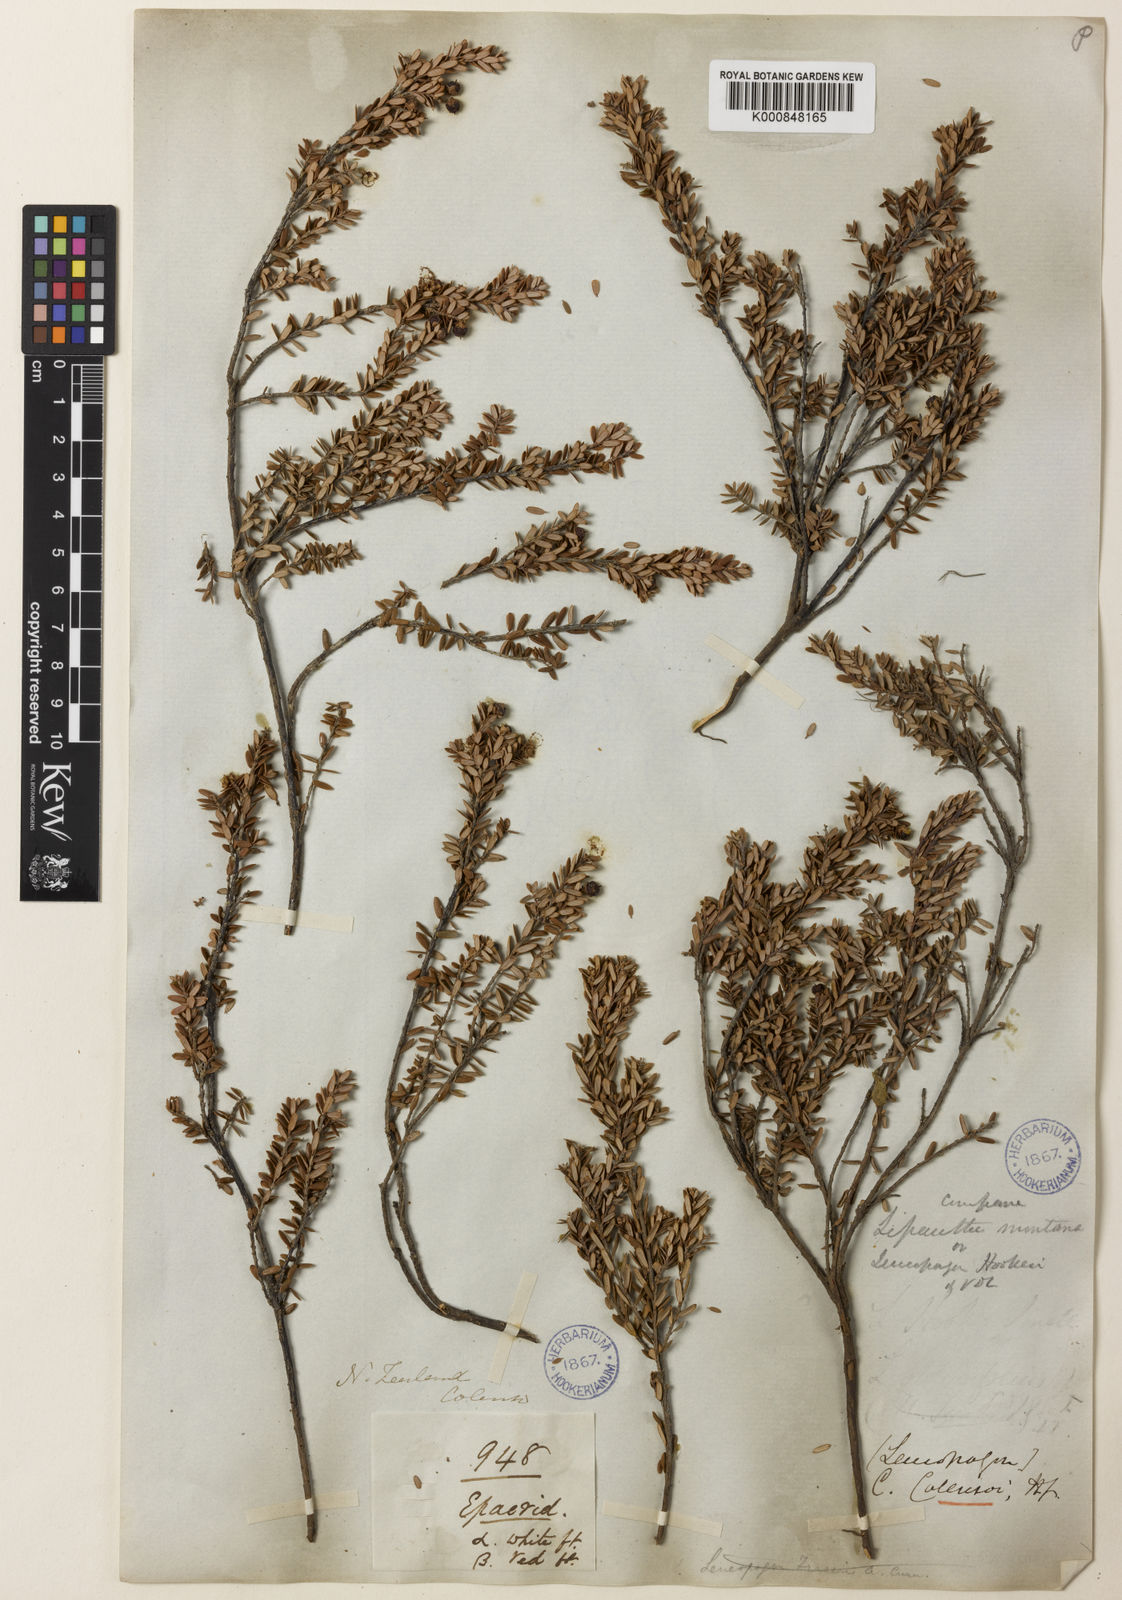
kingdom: Plantae
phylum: Tracheophyta
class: Magnoliopsida
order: Ericales
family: Ericaceae
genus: Acrothamnus
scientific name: Acrothamnus colensoi
